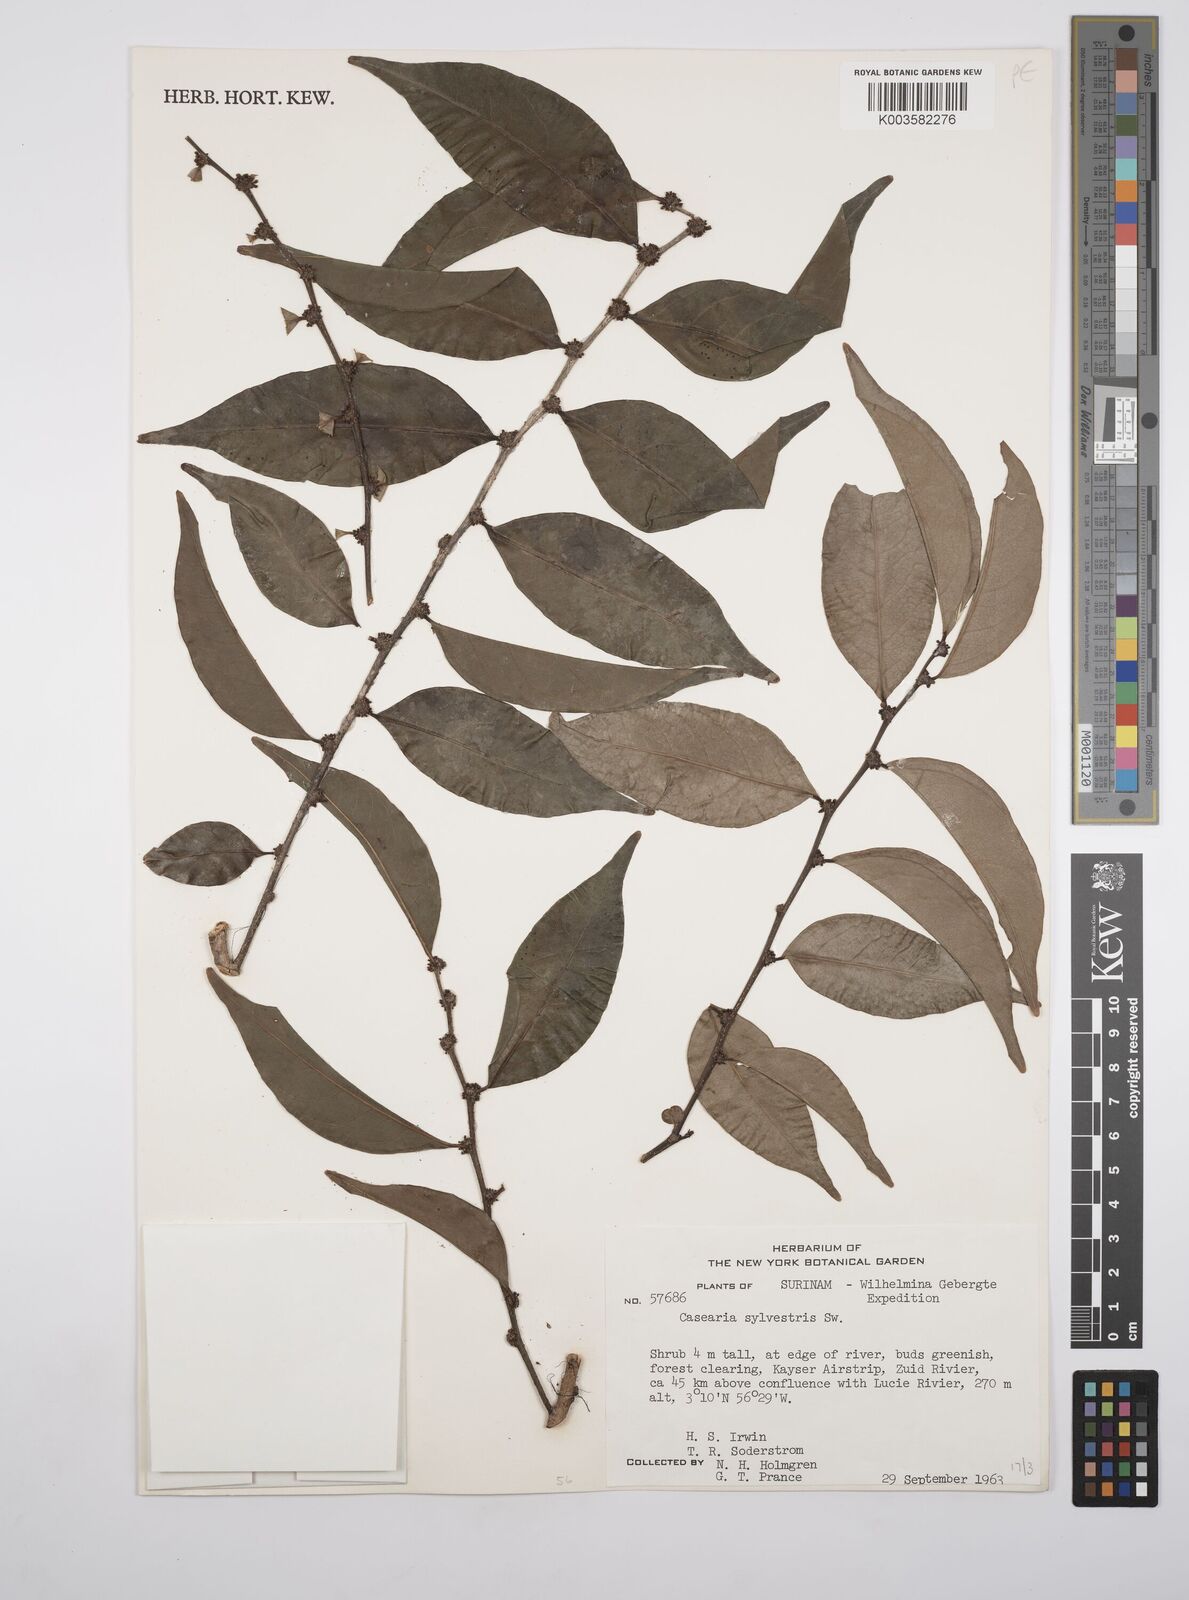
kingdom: Plantae
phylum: Tracheophyta
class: Magnoliopsida
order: Malpighiales
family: Salicaceae
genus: Casearia
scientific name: Casearia sylvestris
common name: Wild sage
